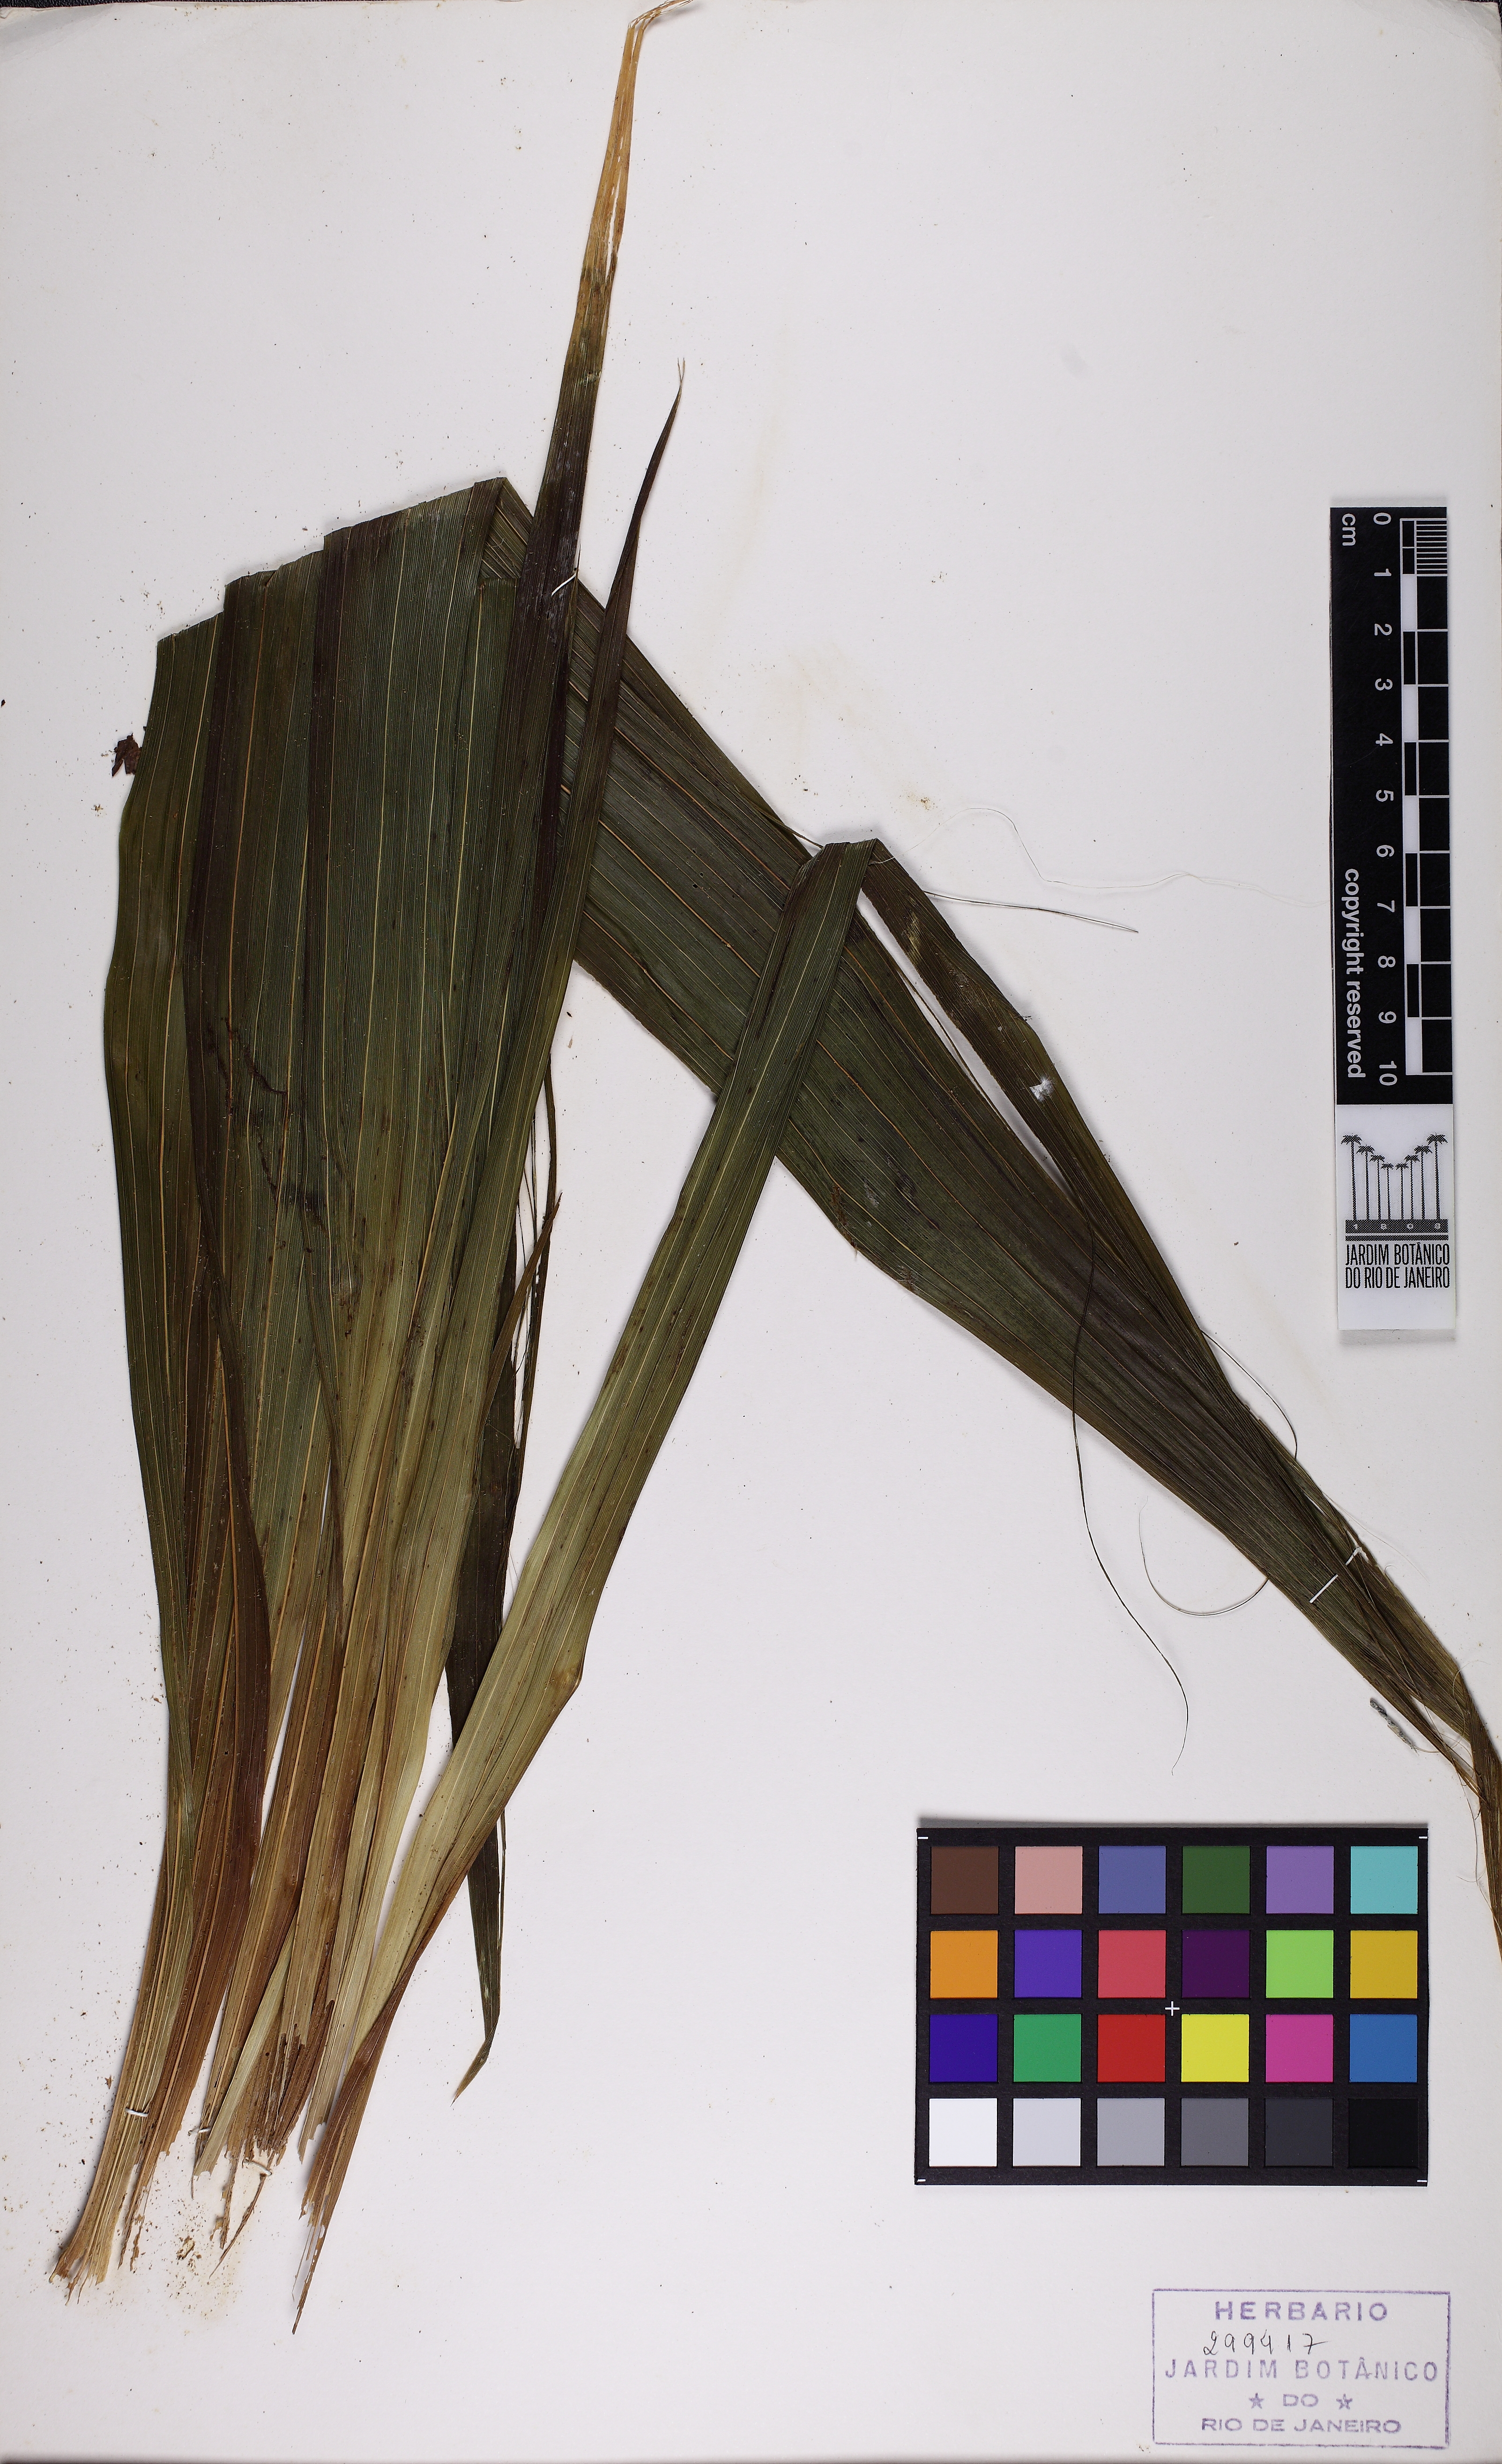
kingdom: Plantae
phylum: Tracheophyta
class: Liliopsida
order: Asparagales
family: Orchidaceae
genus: Cyrtopodium
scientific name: Cyrtopodium glutiniferum
